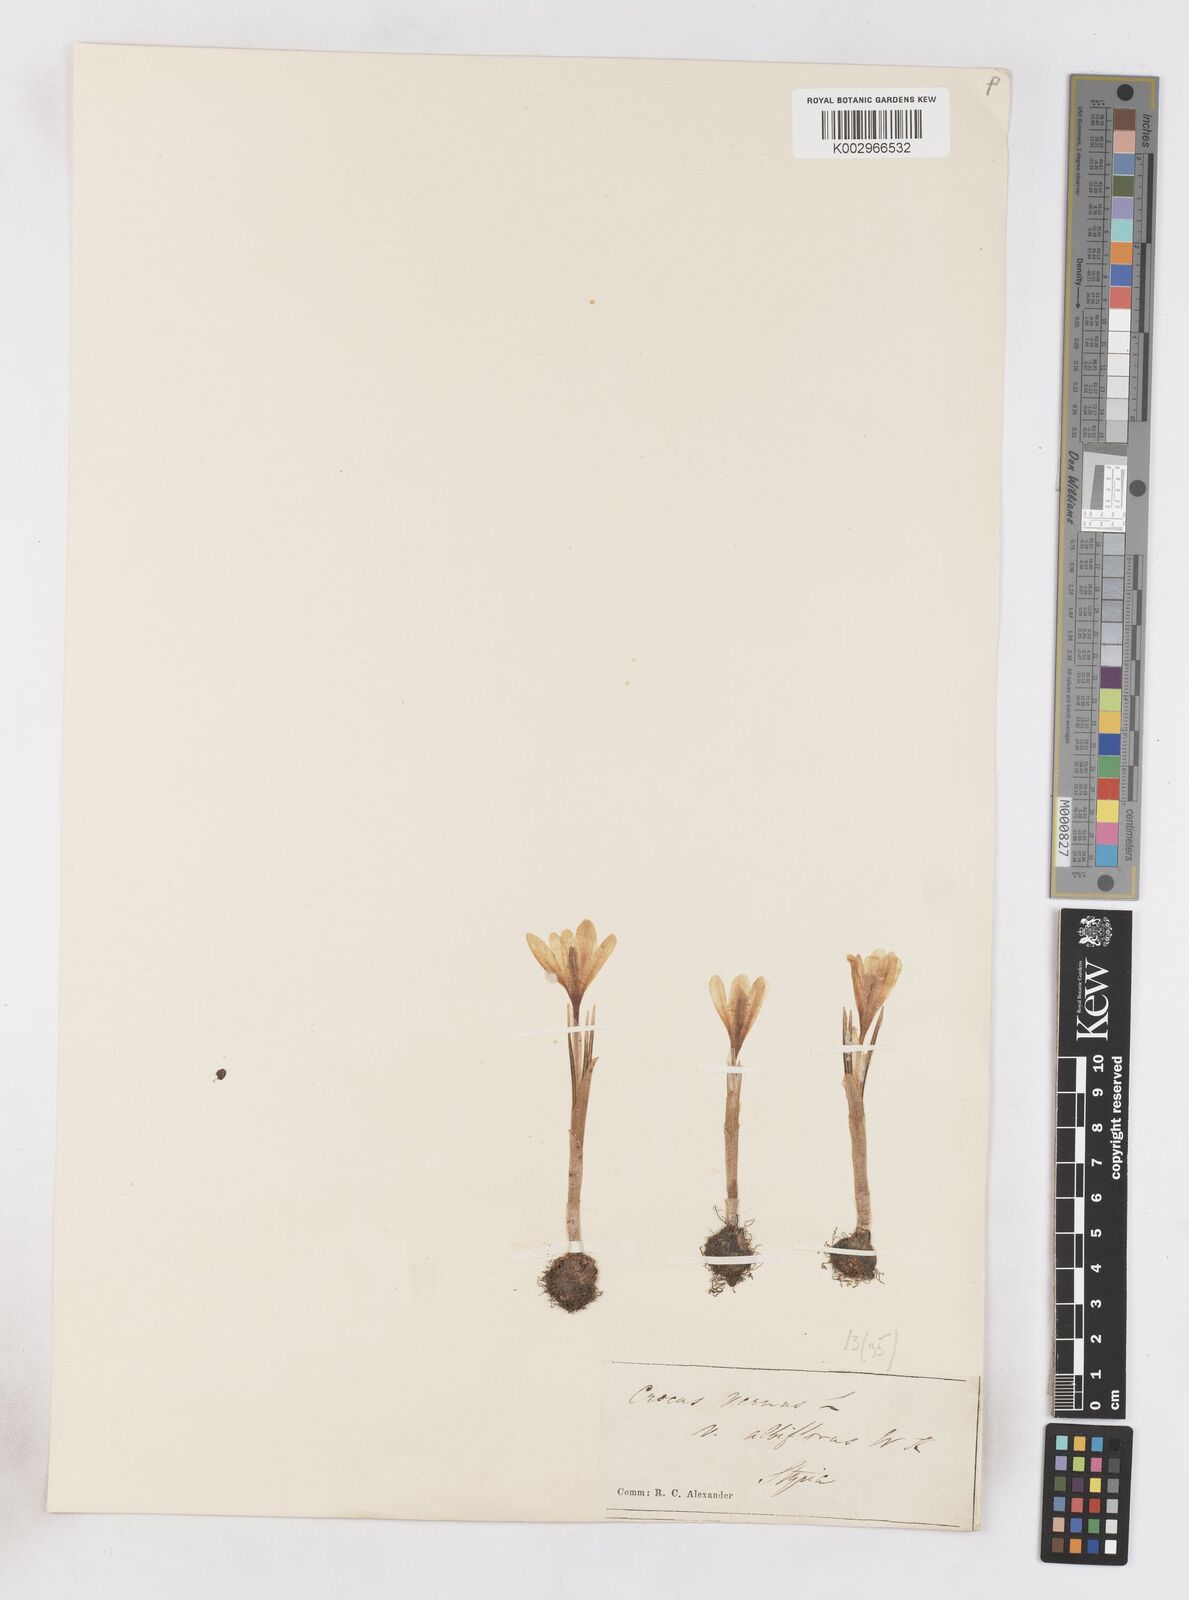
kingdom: Plantae
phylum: Tracheophyta
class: Liliopsida
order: Asparagales
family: Iridaceae
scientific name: Iridaceae
